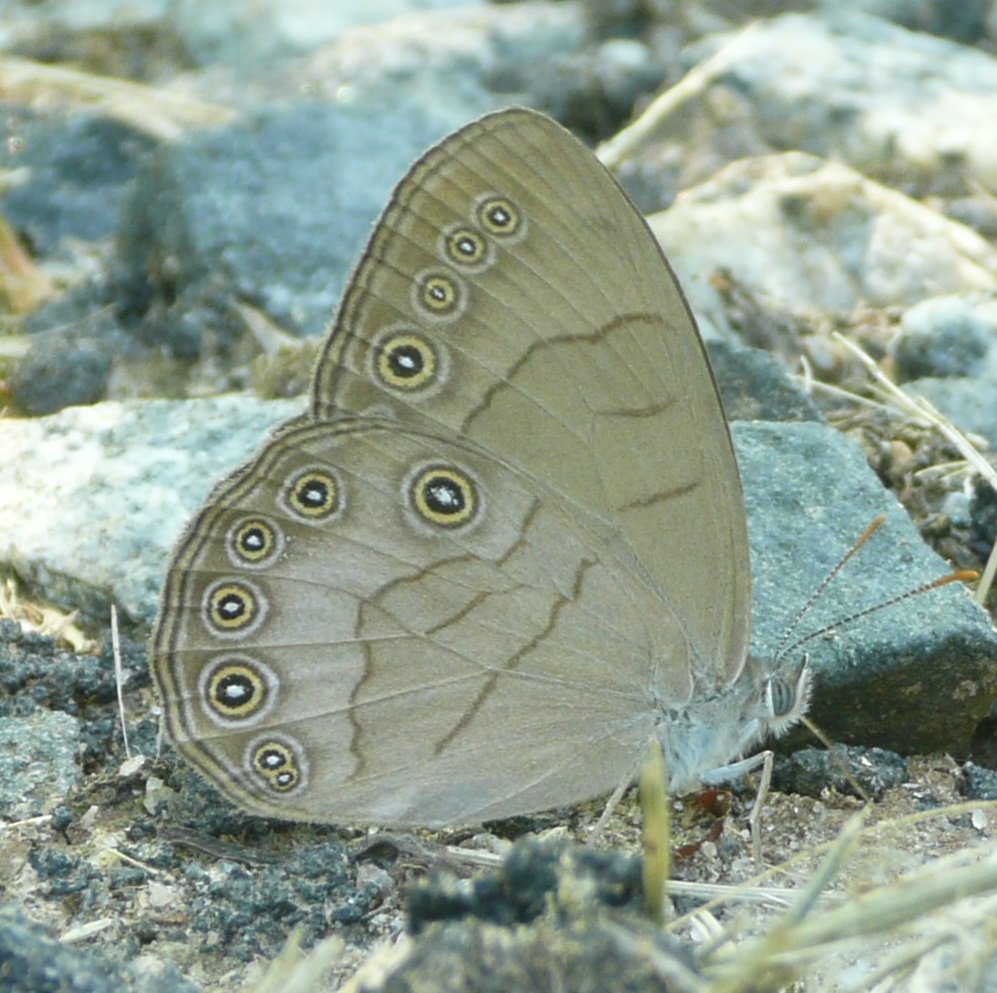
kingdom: Animalia
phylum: Arthropoda
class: Insecta
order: Lepidoptera
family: Nymphalidae
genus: Lethe
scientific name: Lethe eurydice
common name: Appalachian Eyed Brown
